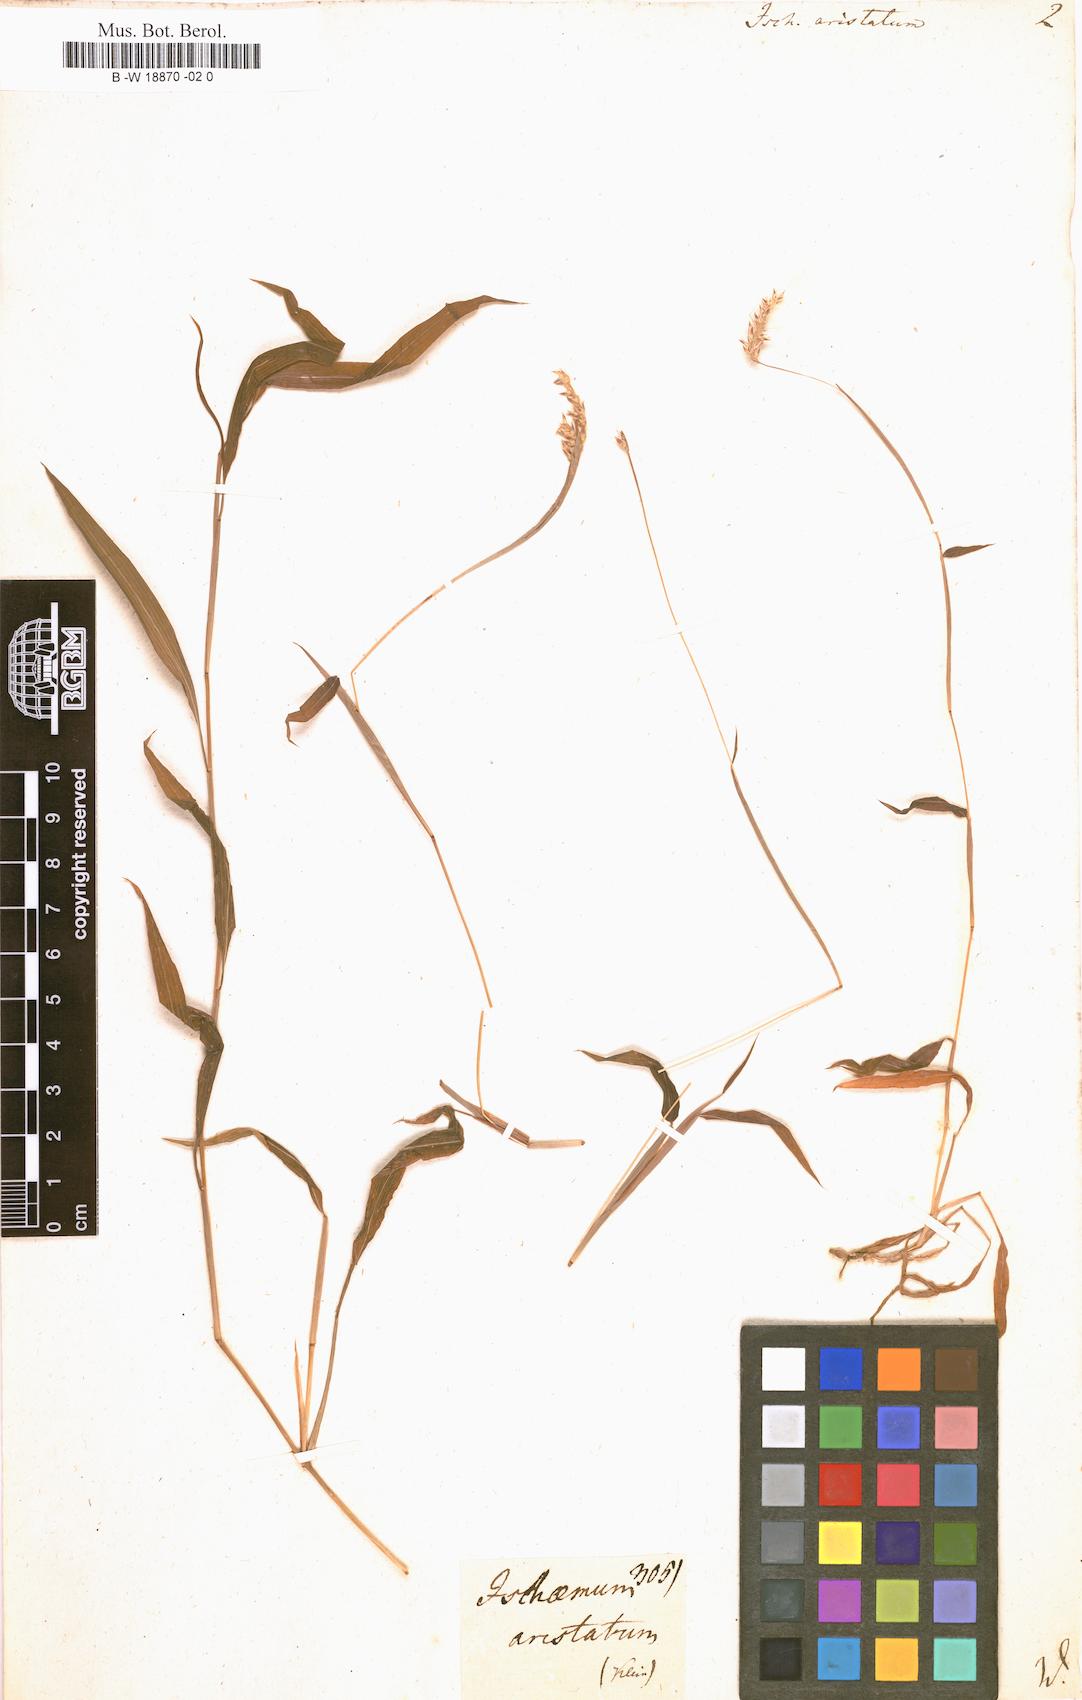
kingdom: Plantae
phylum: Tracheophyta
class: Liliopsida
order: Poales
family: Poaceae
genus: Ischaemum
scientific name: Ischaemum aristatum
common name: Toco grass
